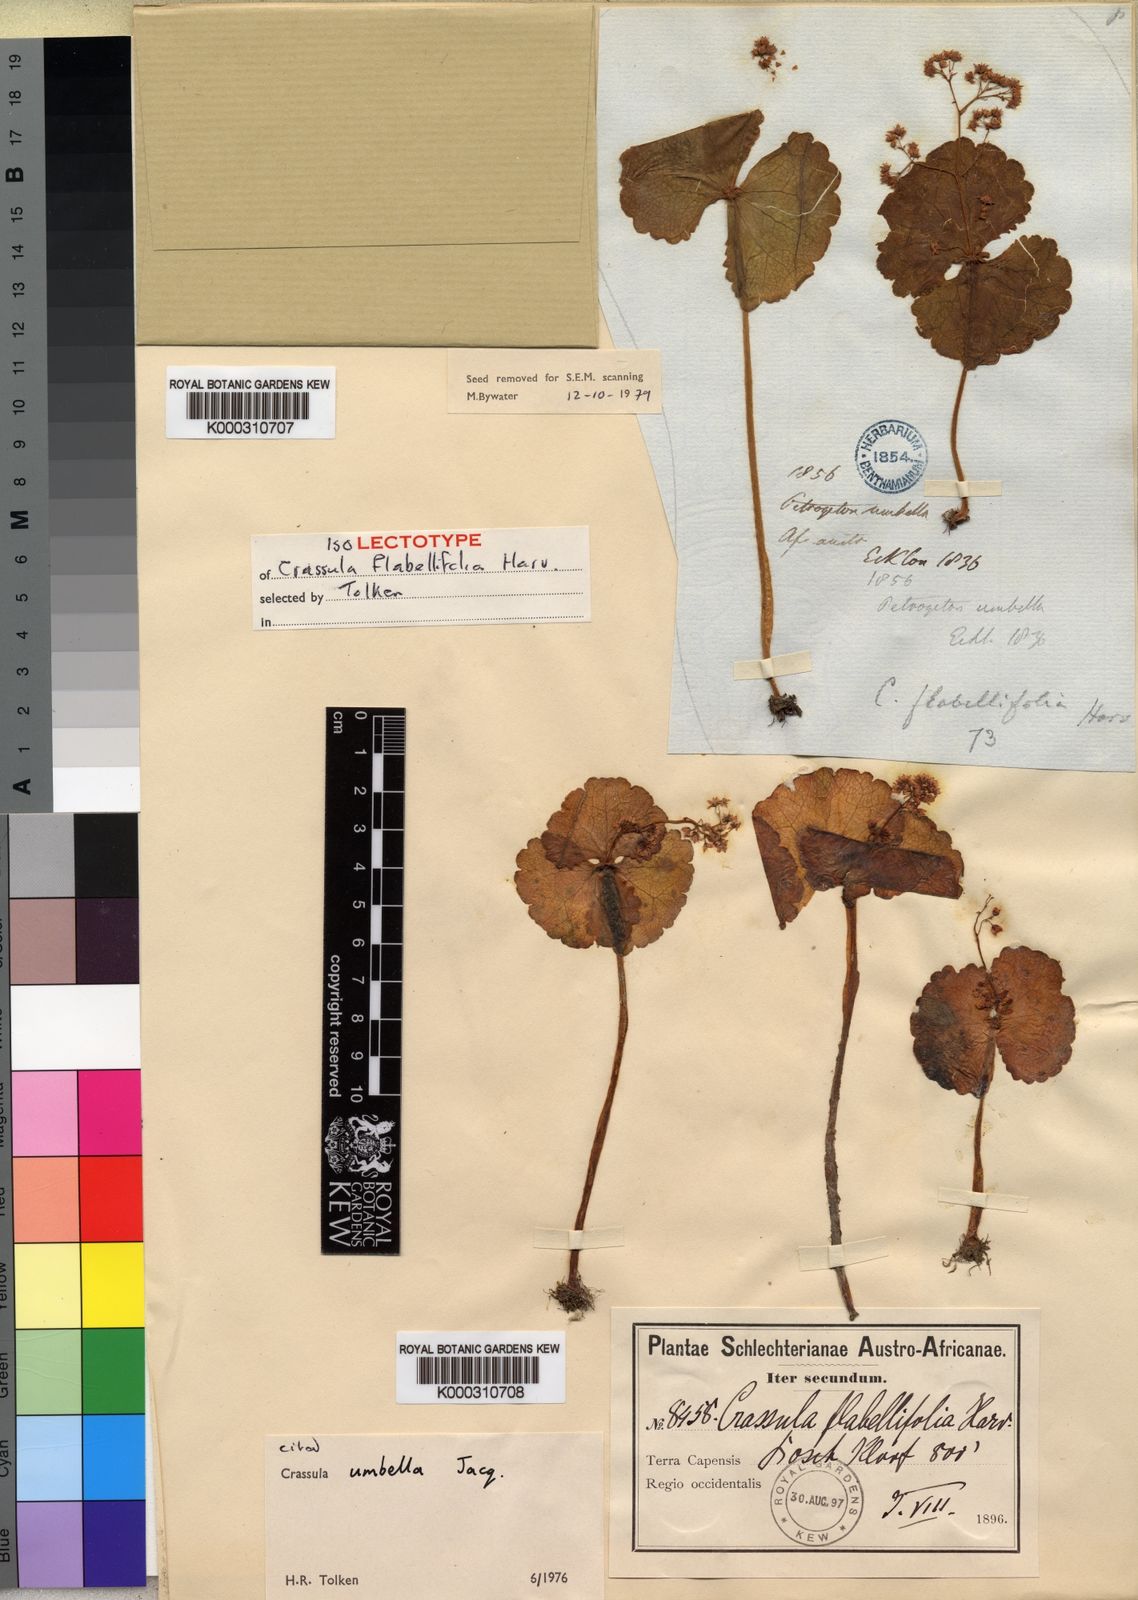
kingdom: Plantae
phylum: Tracheophyta
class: Magnoliopsida
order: Saxifragales
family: Crassulaceae
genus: Crassula
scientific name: Crassula umbella
